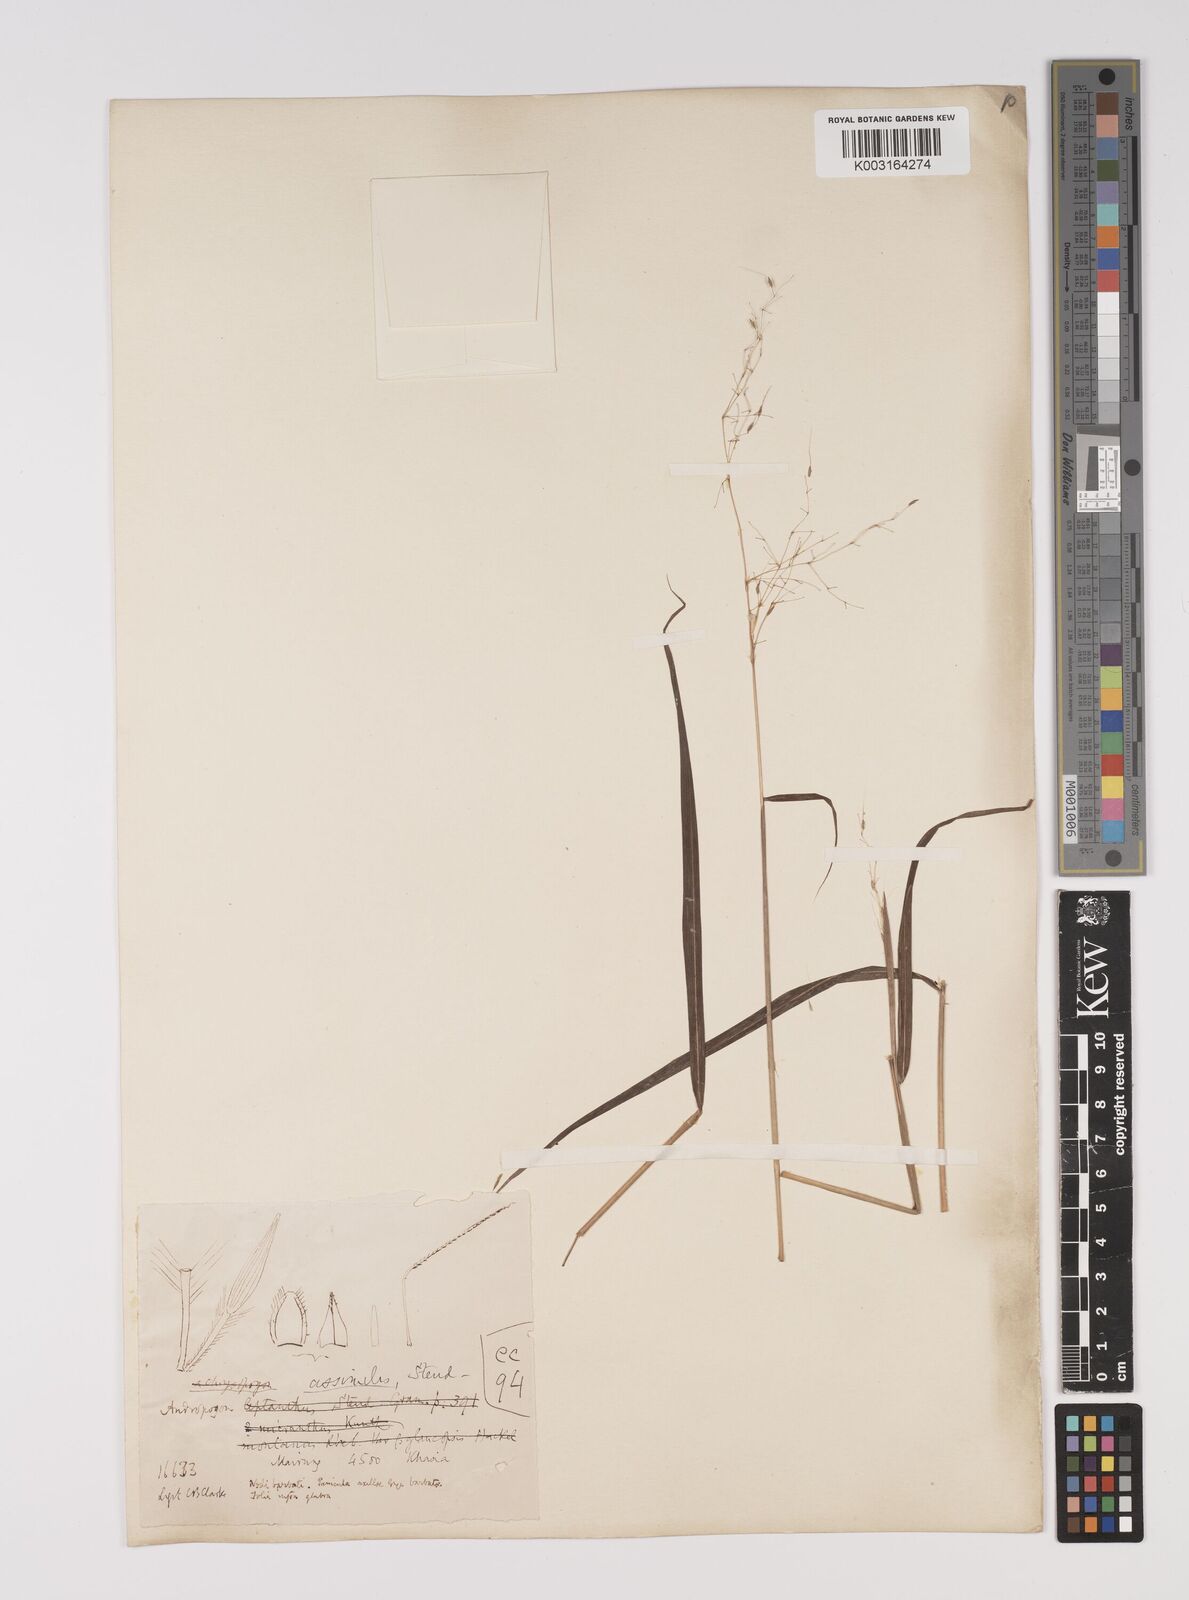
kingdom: Plantae
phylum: Tracheophyta
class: Liliopsida
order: Poales
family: Poaceae
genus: Capillipedium
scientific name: Capillipedium parviflorum
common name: Golden-beard
